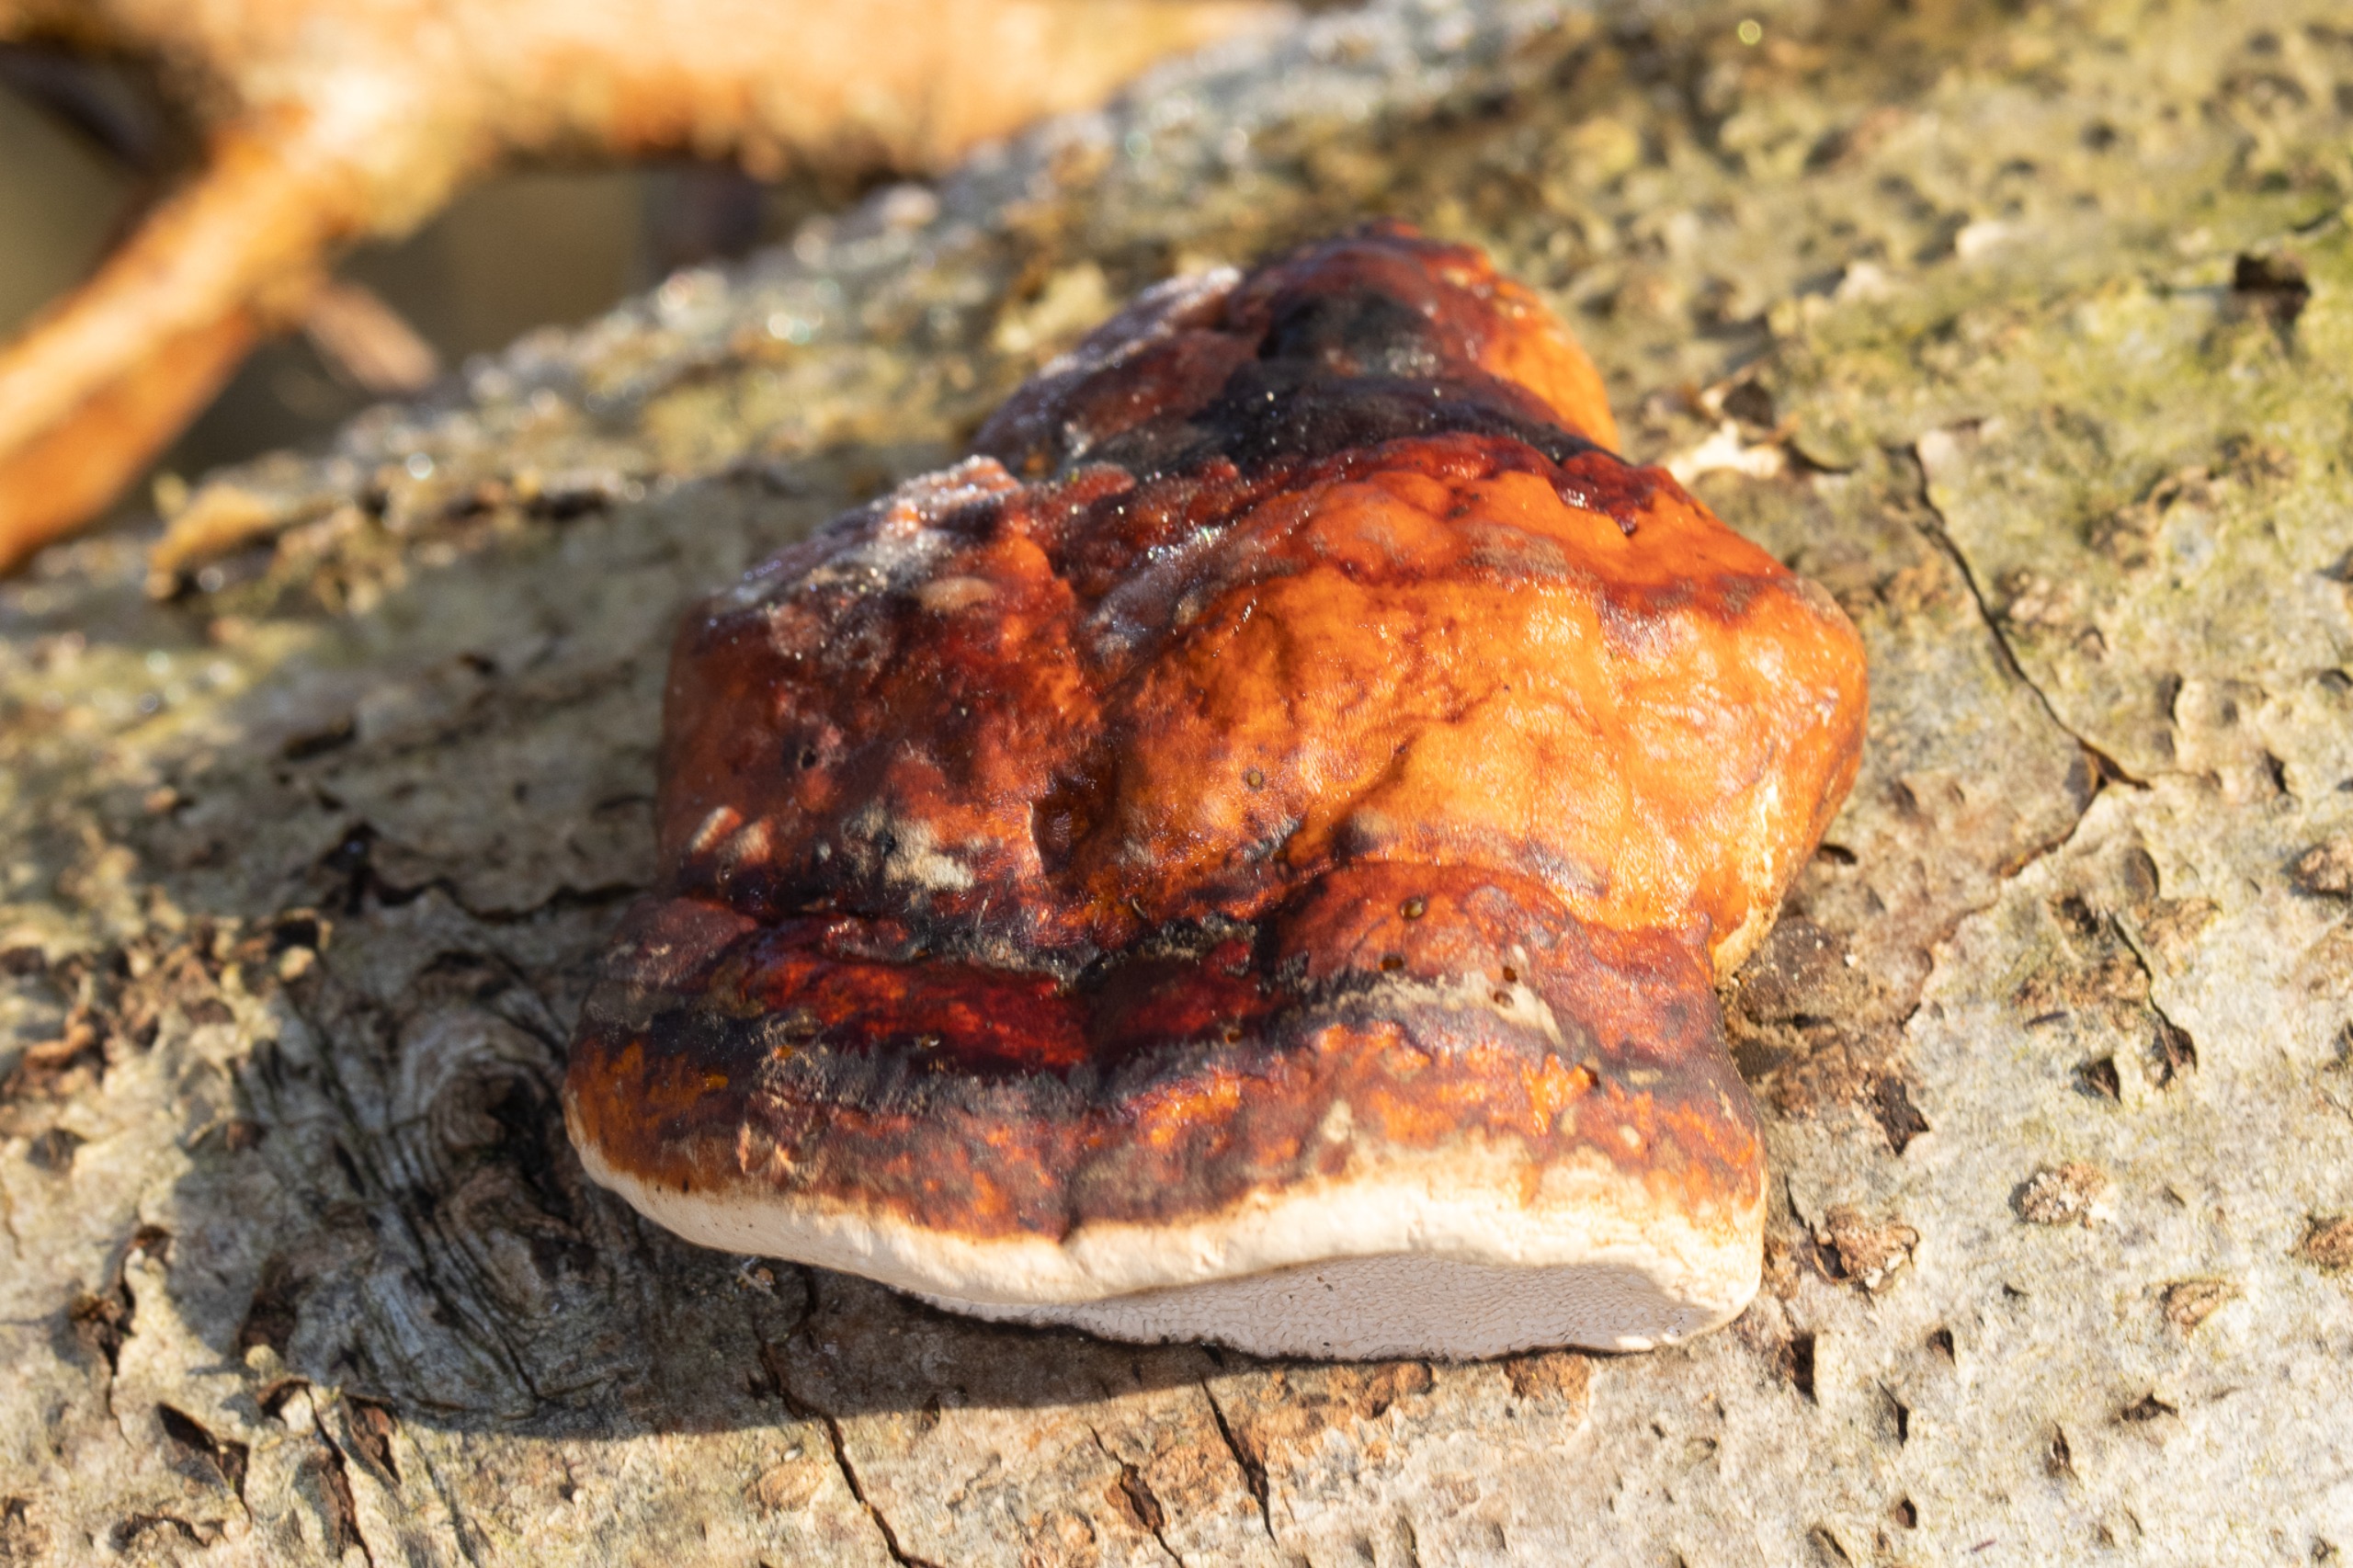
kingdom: Fungi
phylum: Basidiomycota
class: Agaricomycetes
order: Polyporales
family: Fomitopsidaceae
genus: Fomitopsis
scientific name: Fomitopsis pinicola
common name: Randbæltet hovporesvamp
